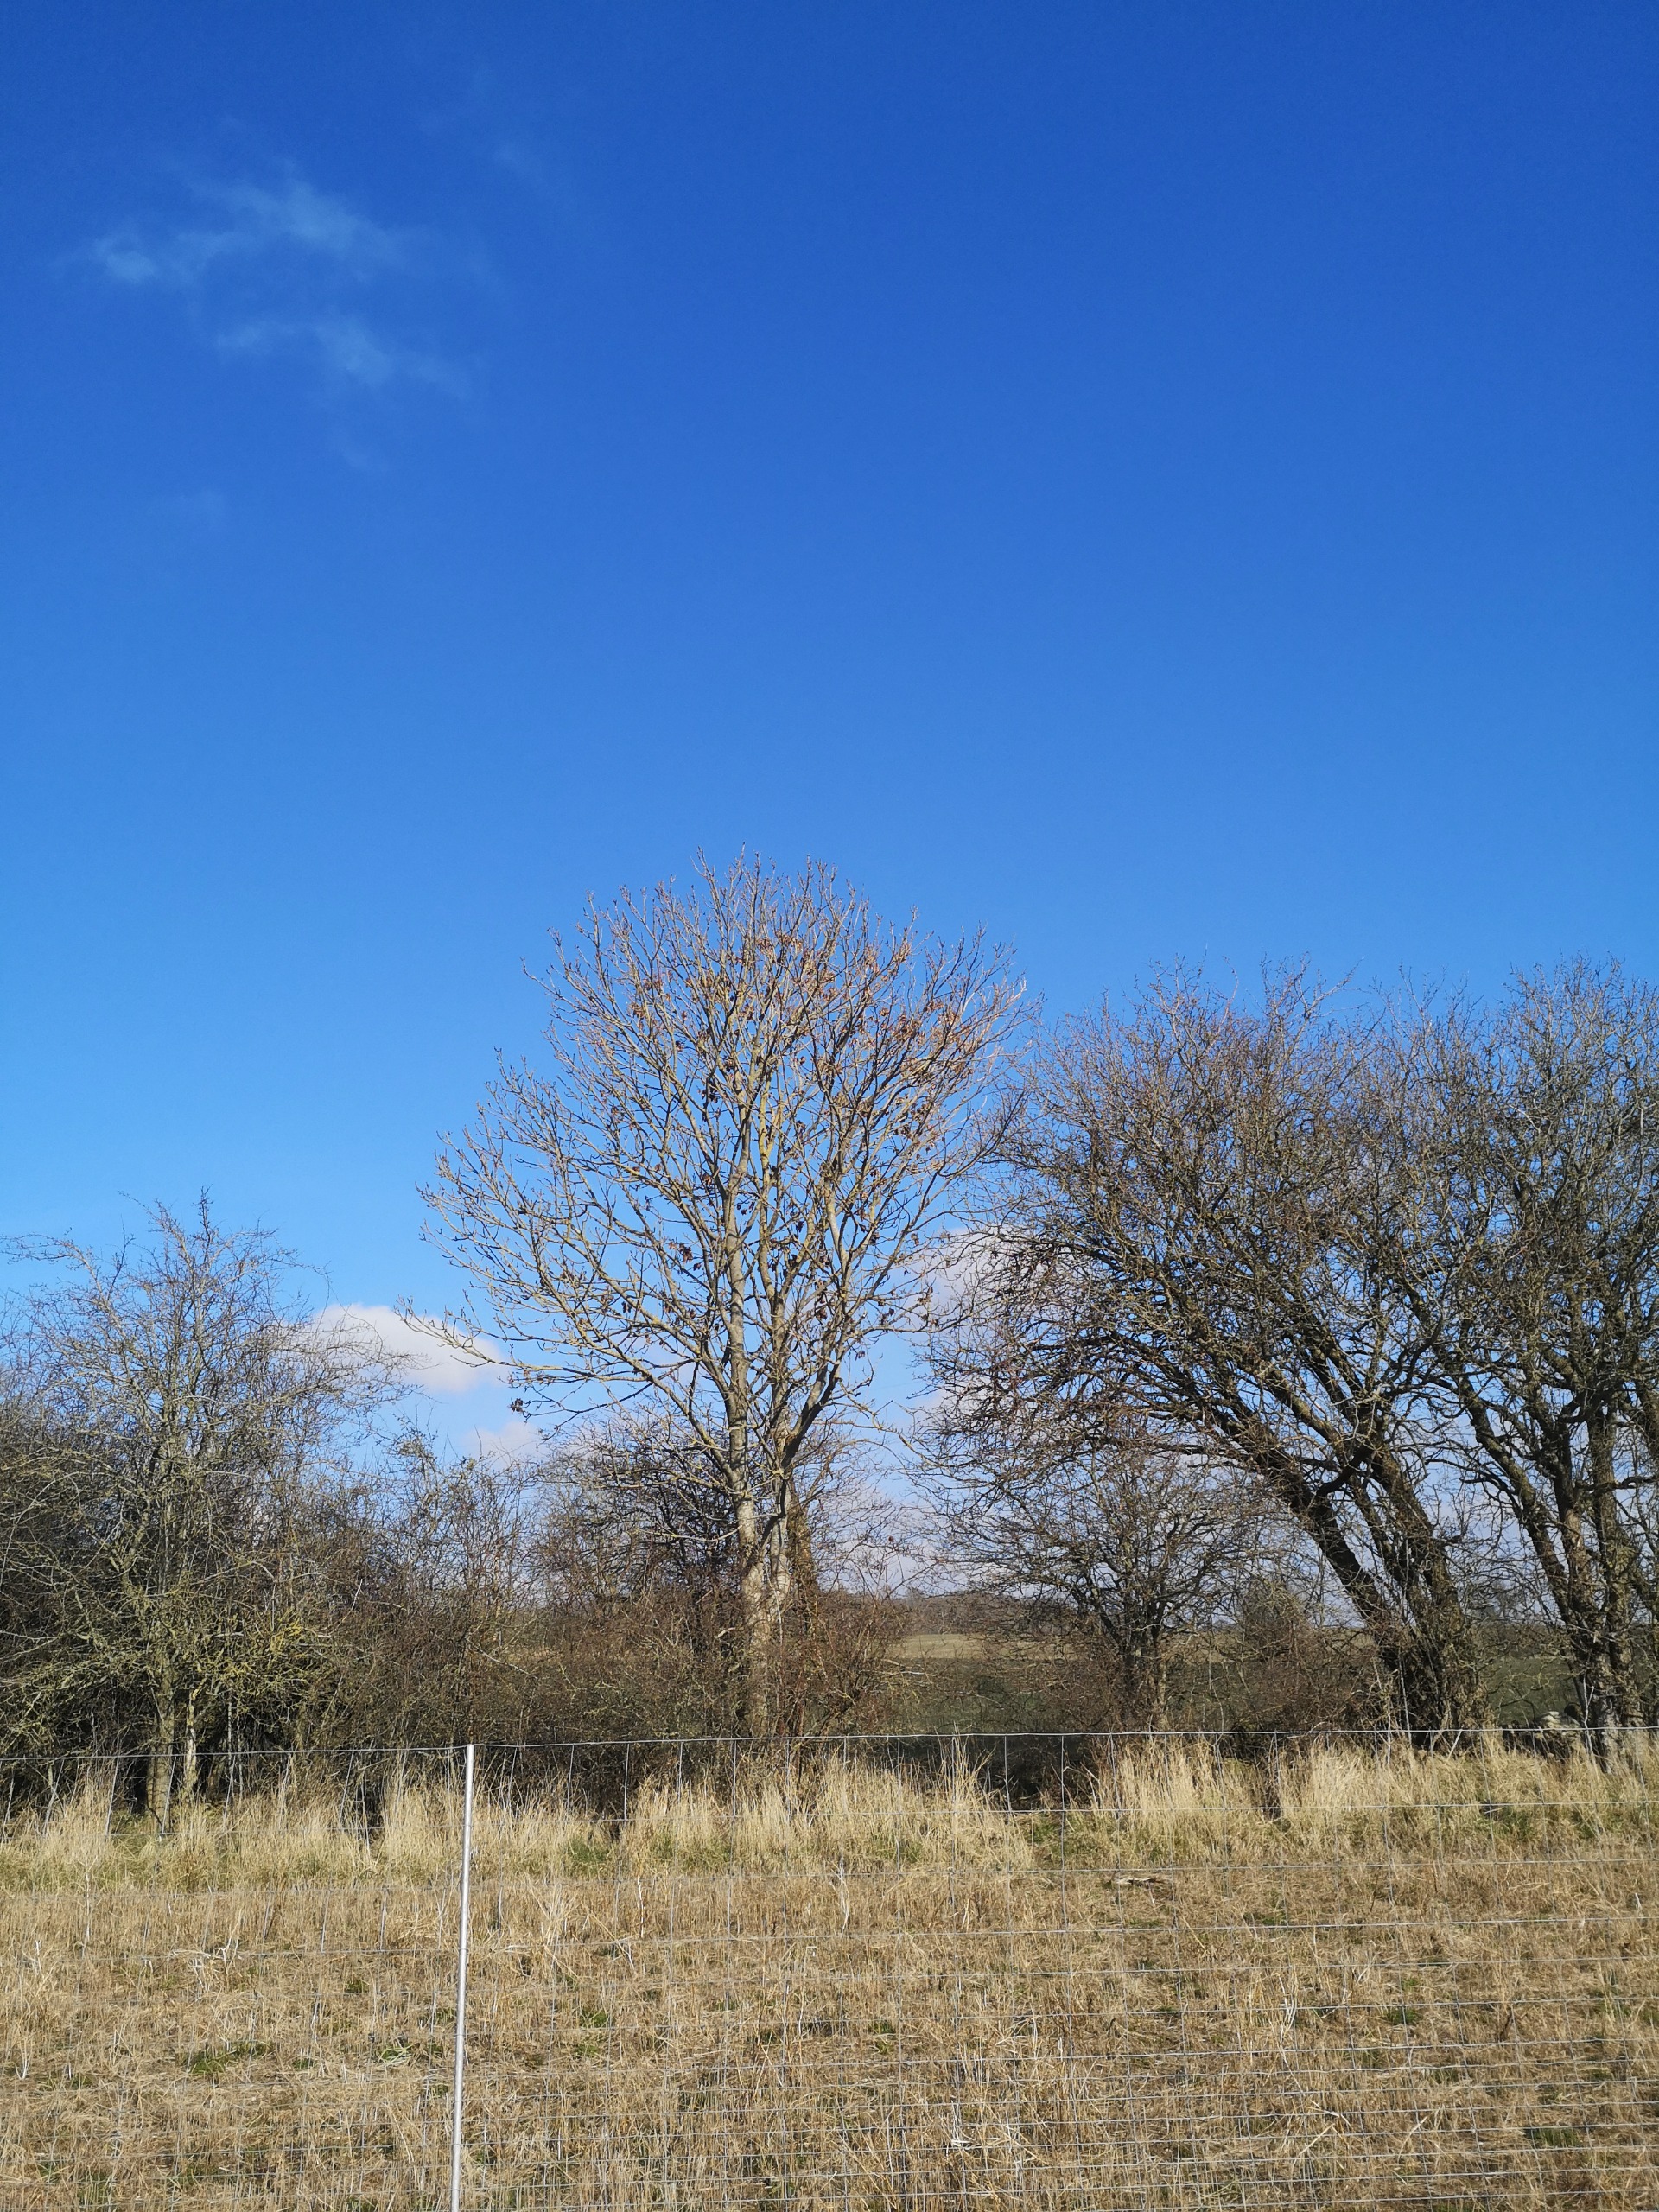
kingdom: Plantae
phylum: Tracheophyta
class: Magnoliopsida
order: Lamiales
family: Oleaceae
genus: Fraxinus
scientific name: Fraxinus excelsior
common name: Ask
